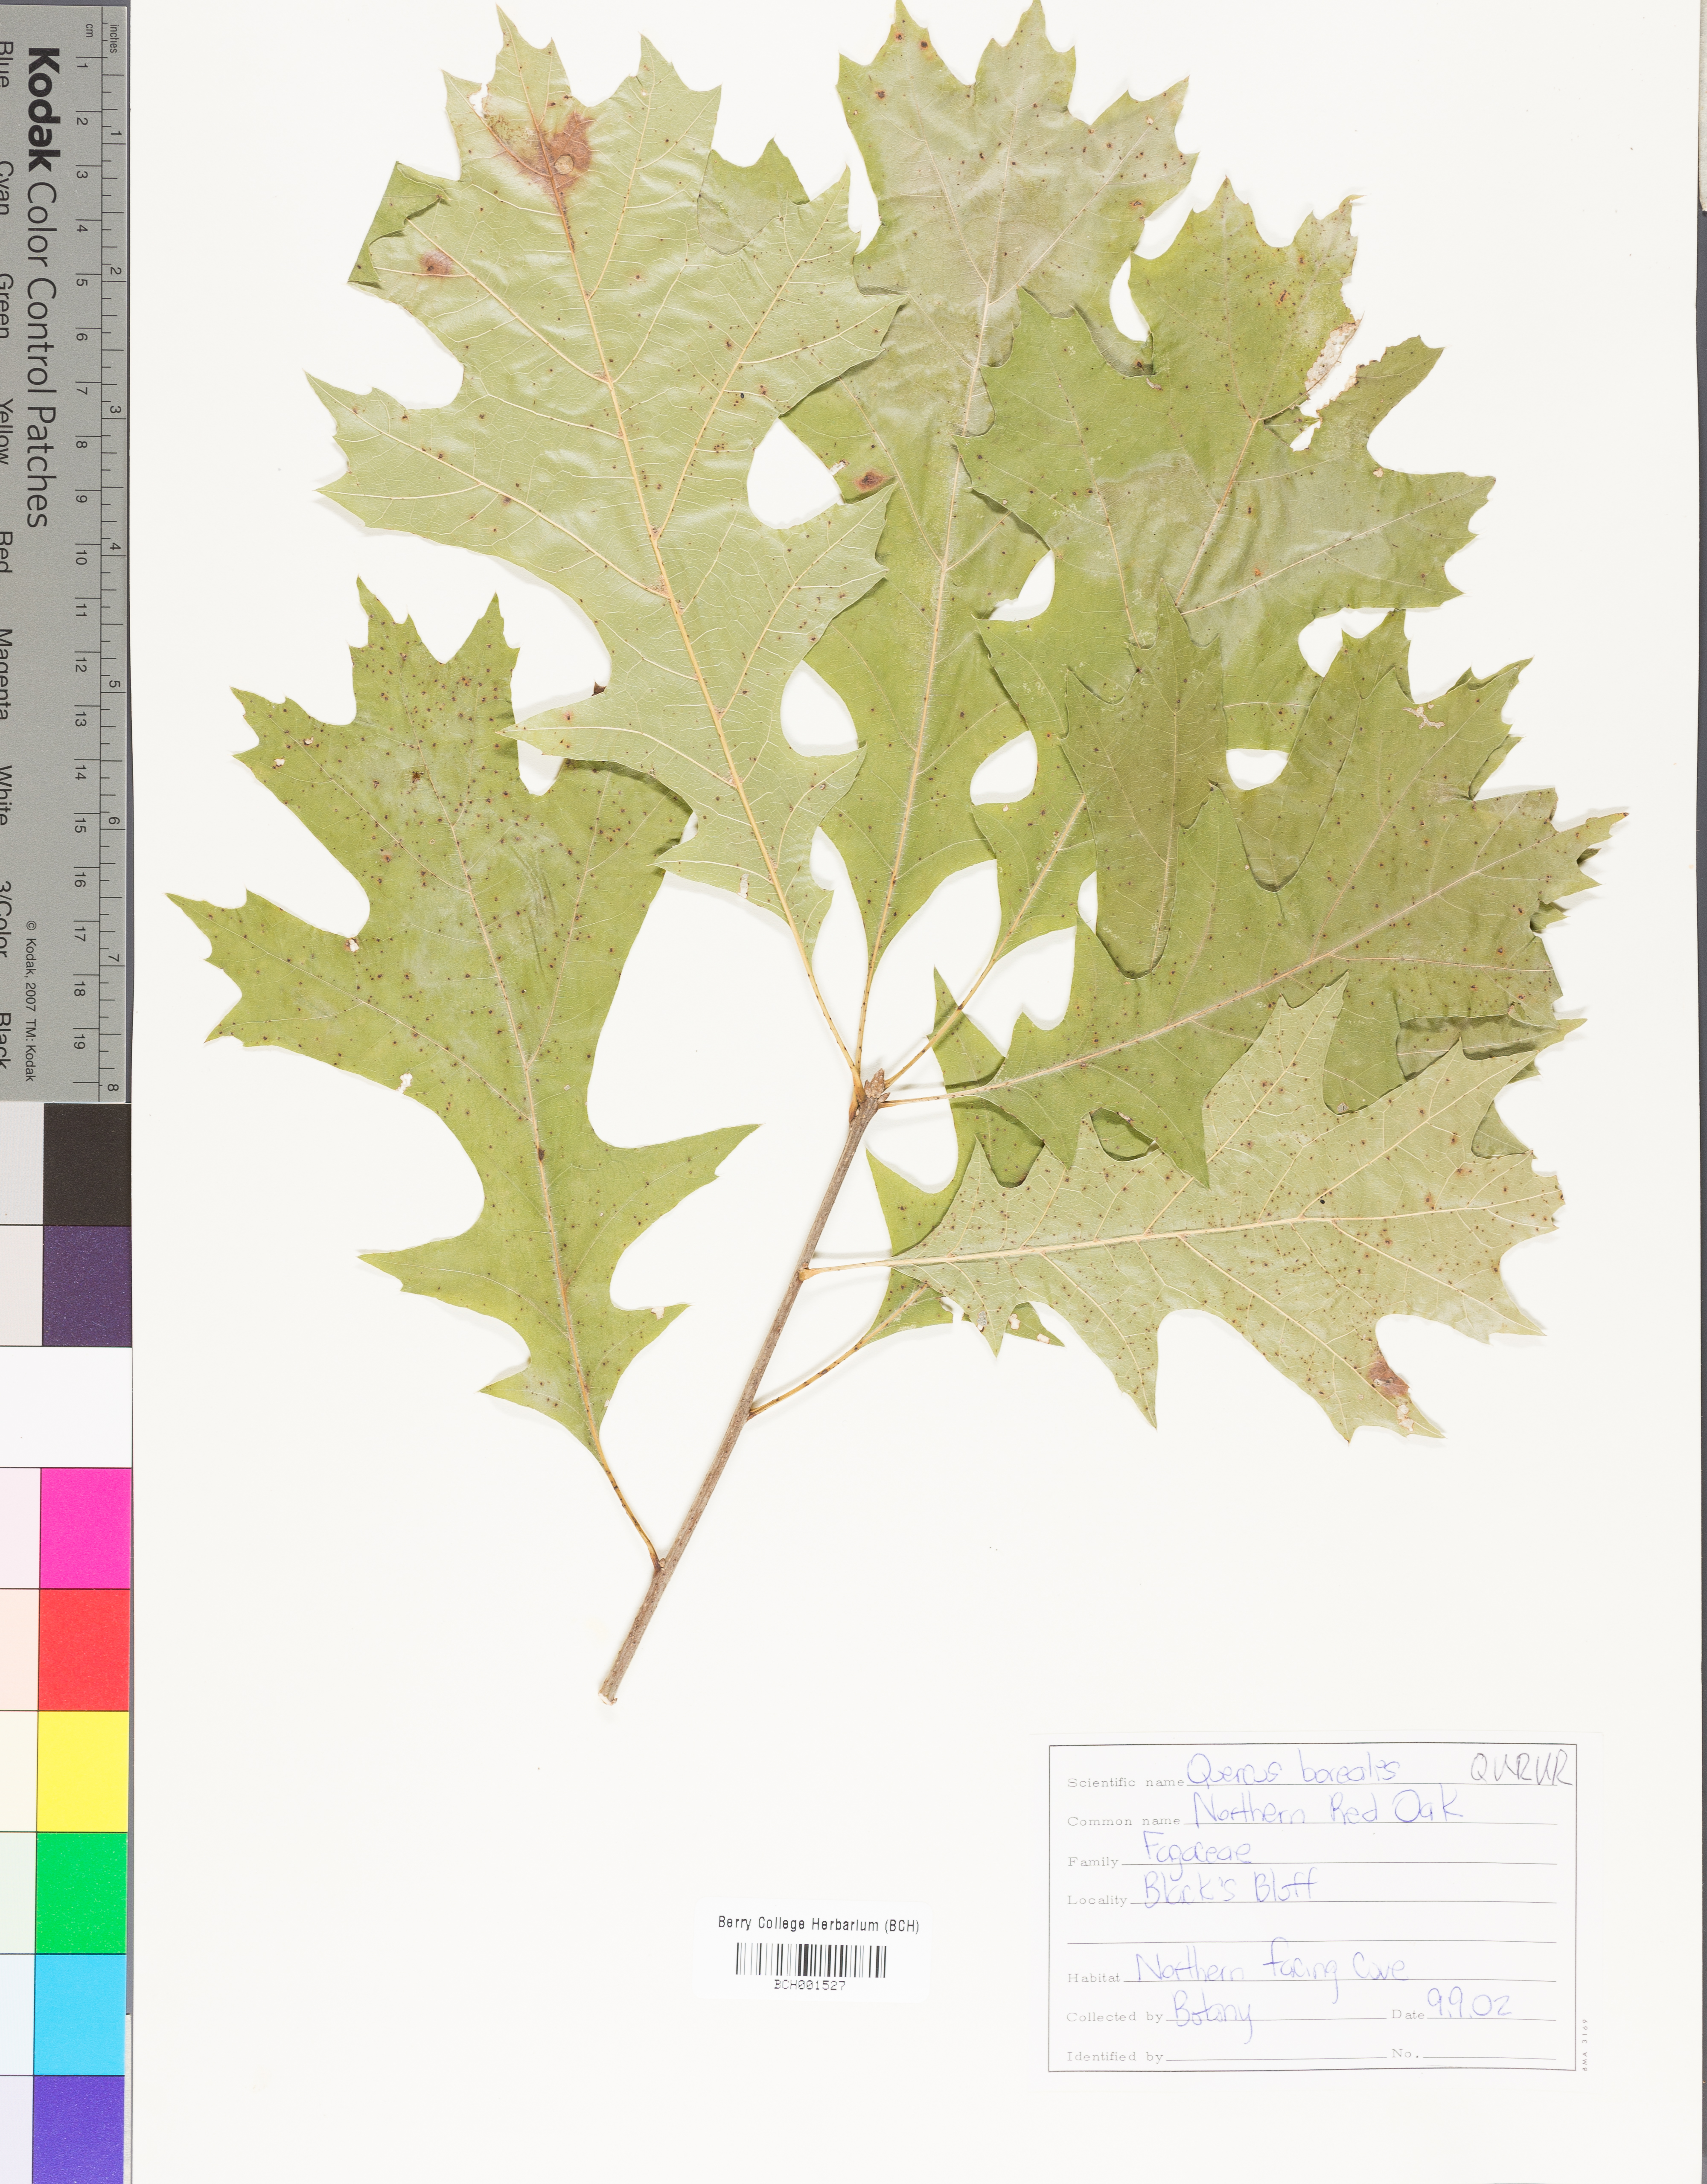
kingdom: Plantae
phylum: Tracheophyta
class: Magnoliopsida
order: Fagales
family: Fagaceae
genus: Quercus
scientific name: Quercus rubra
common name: Red oak
